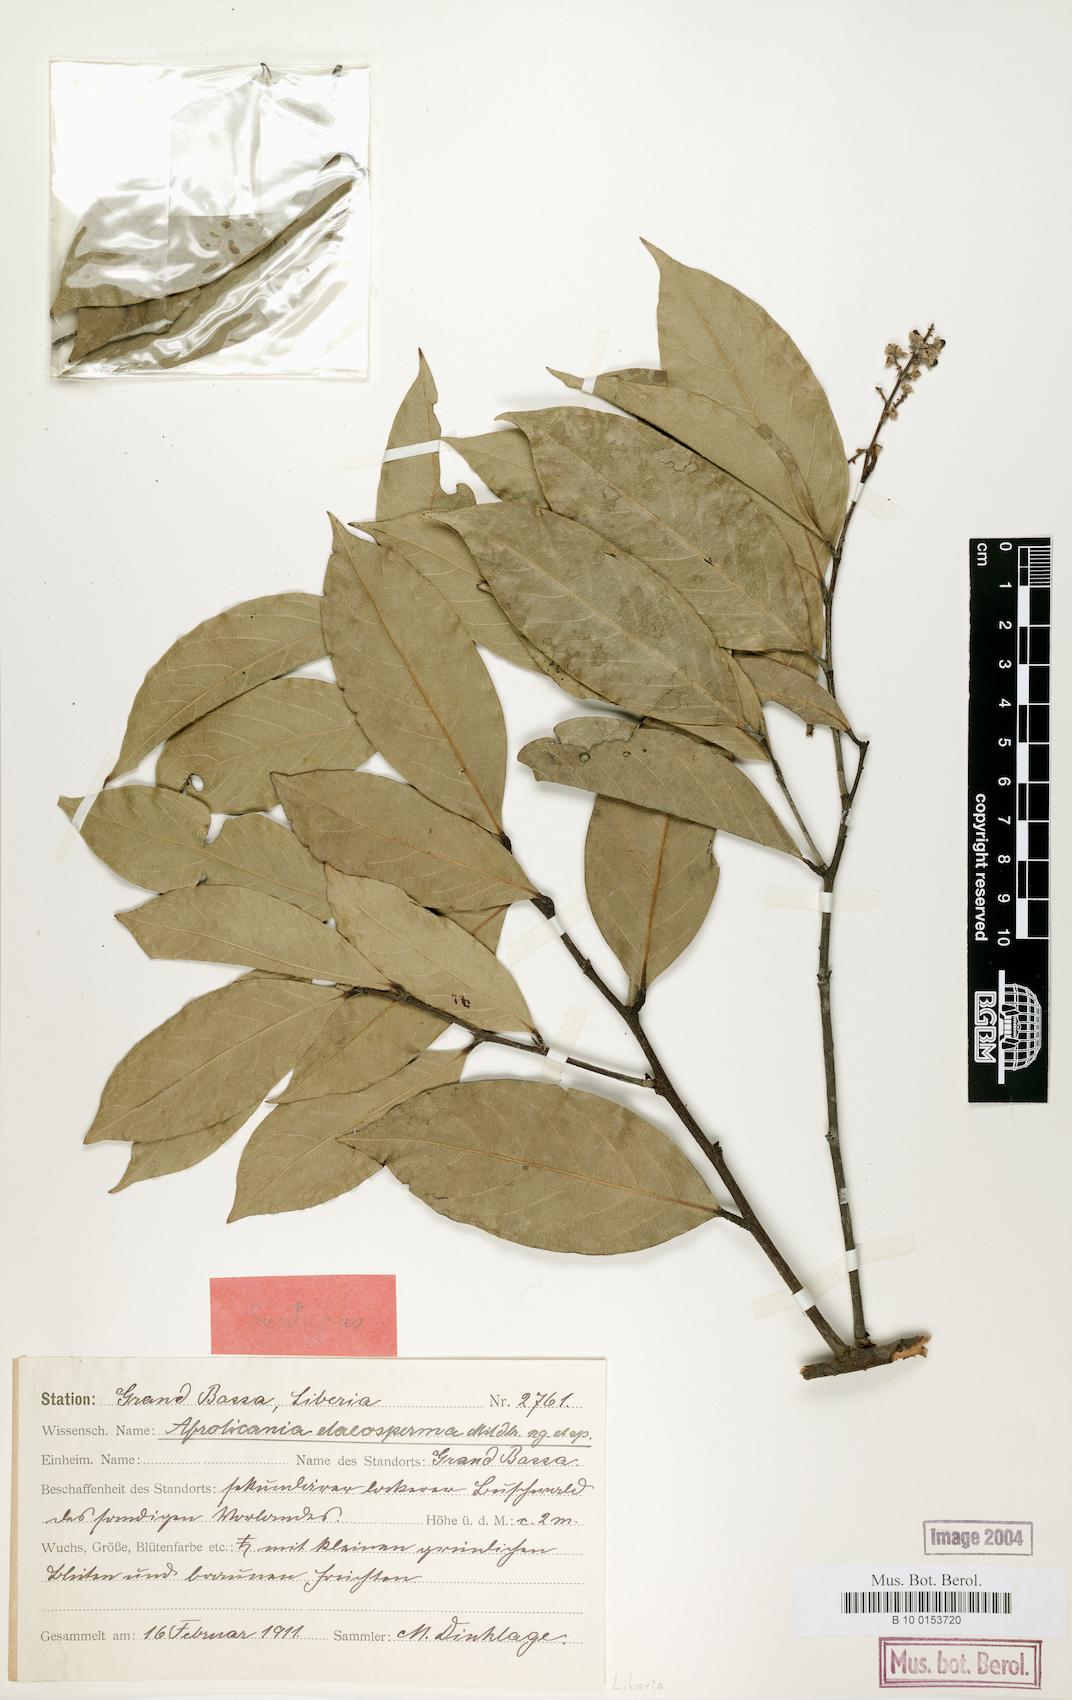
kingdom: Plantae
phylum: Tracheophyta
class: Magnoliopsida
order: Malpighiales
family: Chrysobalanaceae
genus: Afrolicania
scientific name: Afrolicania elaeosperma
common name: Nikko
